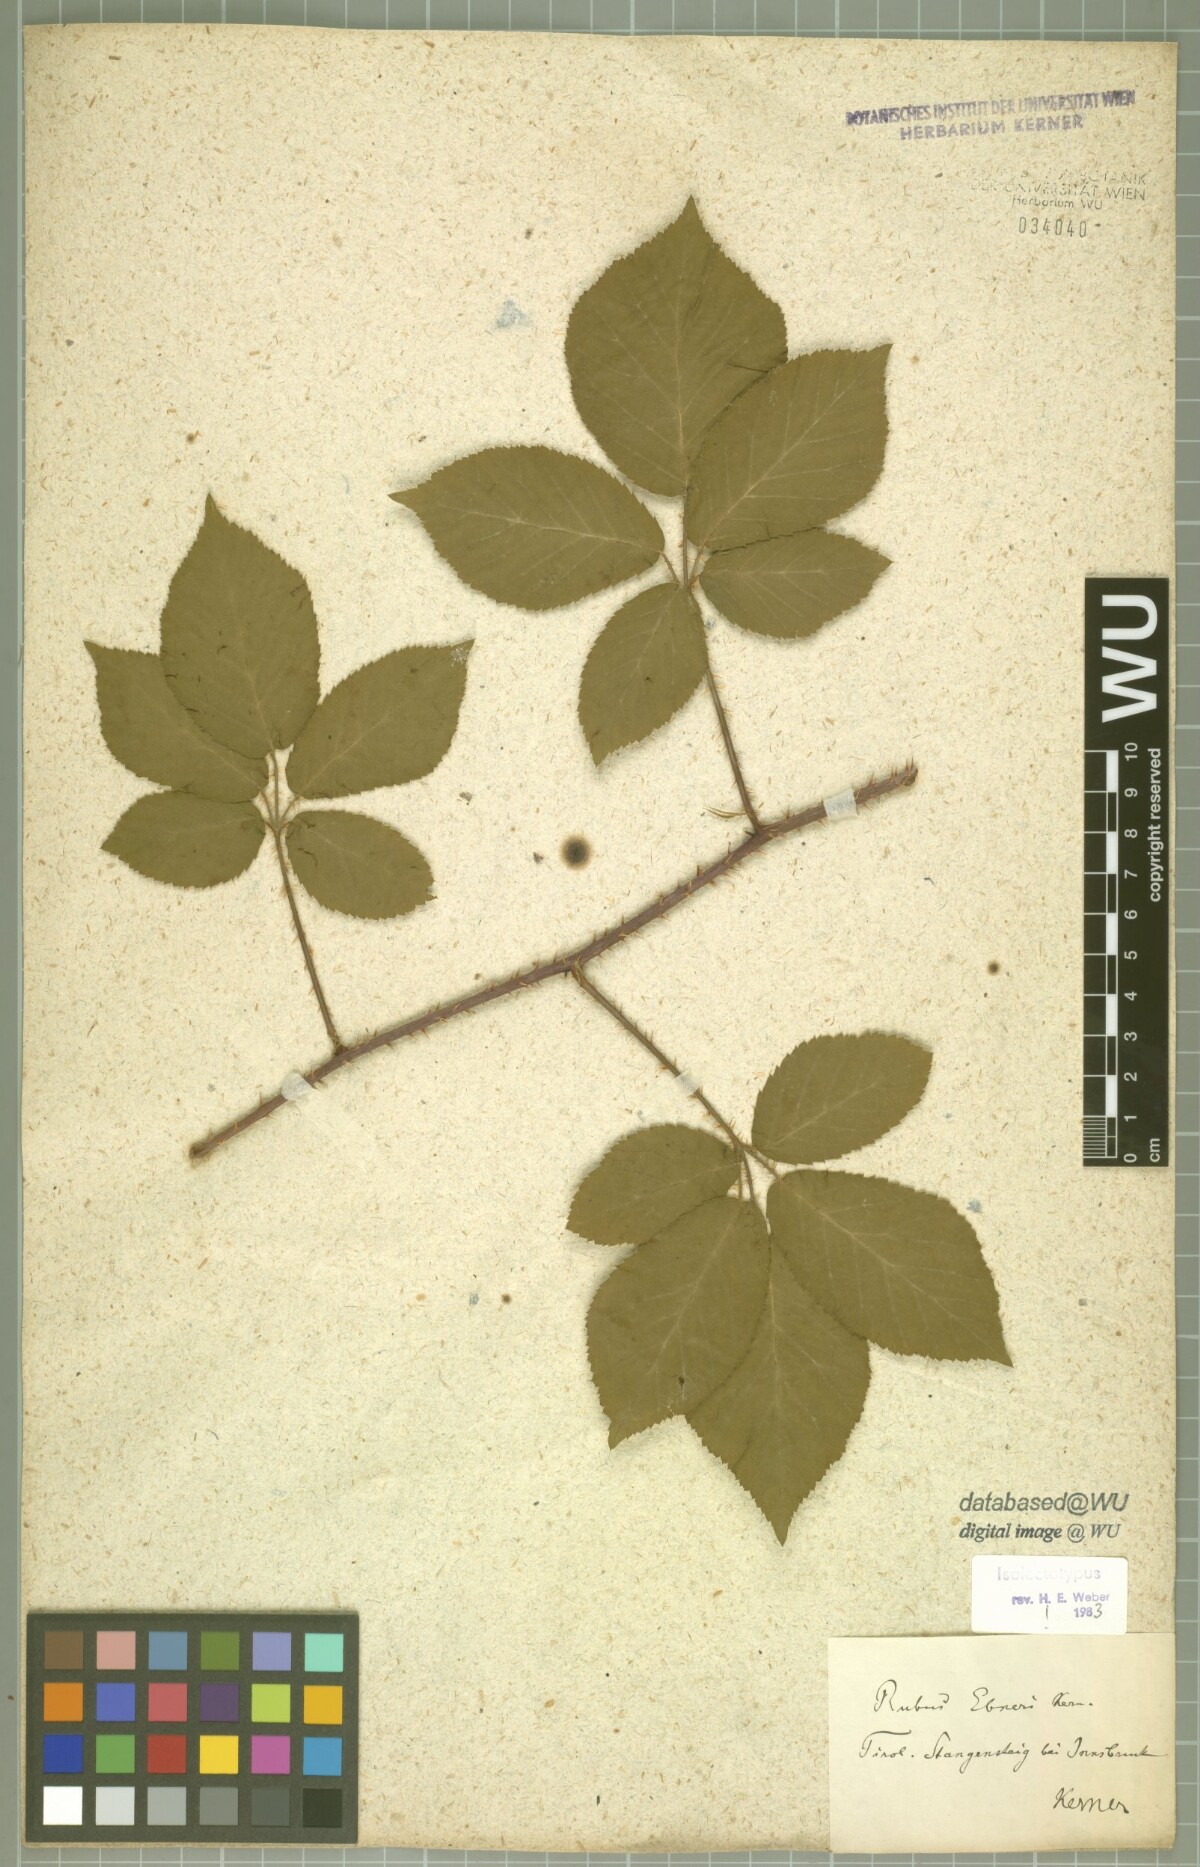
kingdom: Plantae
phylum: Tracheophyta
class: Magnoliopsida
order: Rosales
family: Rosaceae
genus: Rubus
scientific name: Rubus ebneri
